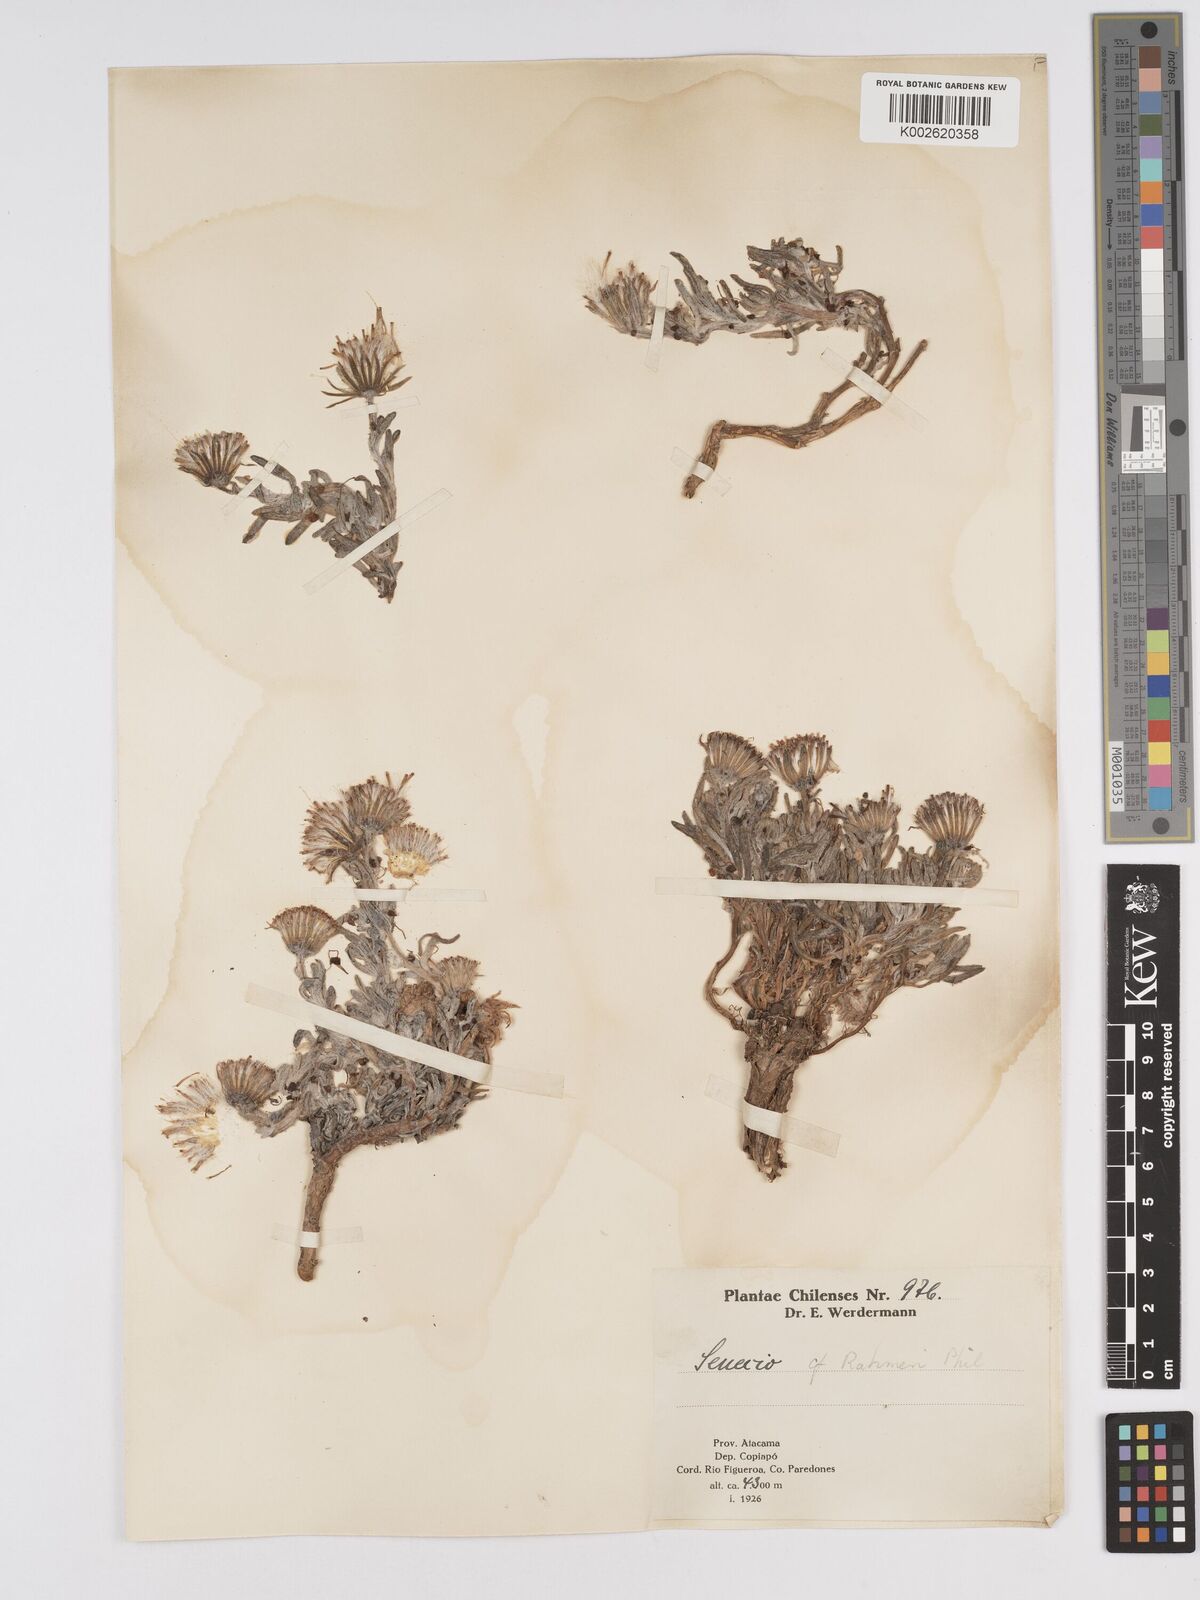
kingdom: Plantae
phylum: Tracheophyta
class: Magnoliopsida
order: Asterales
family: Asteraceae
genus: Senecio
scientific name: Senecio rahmeri
